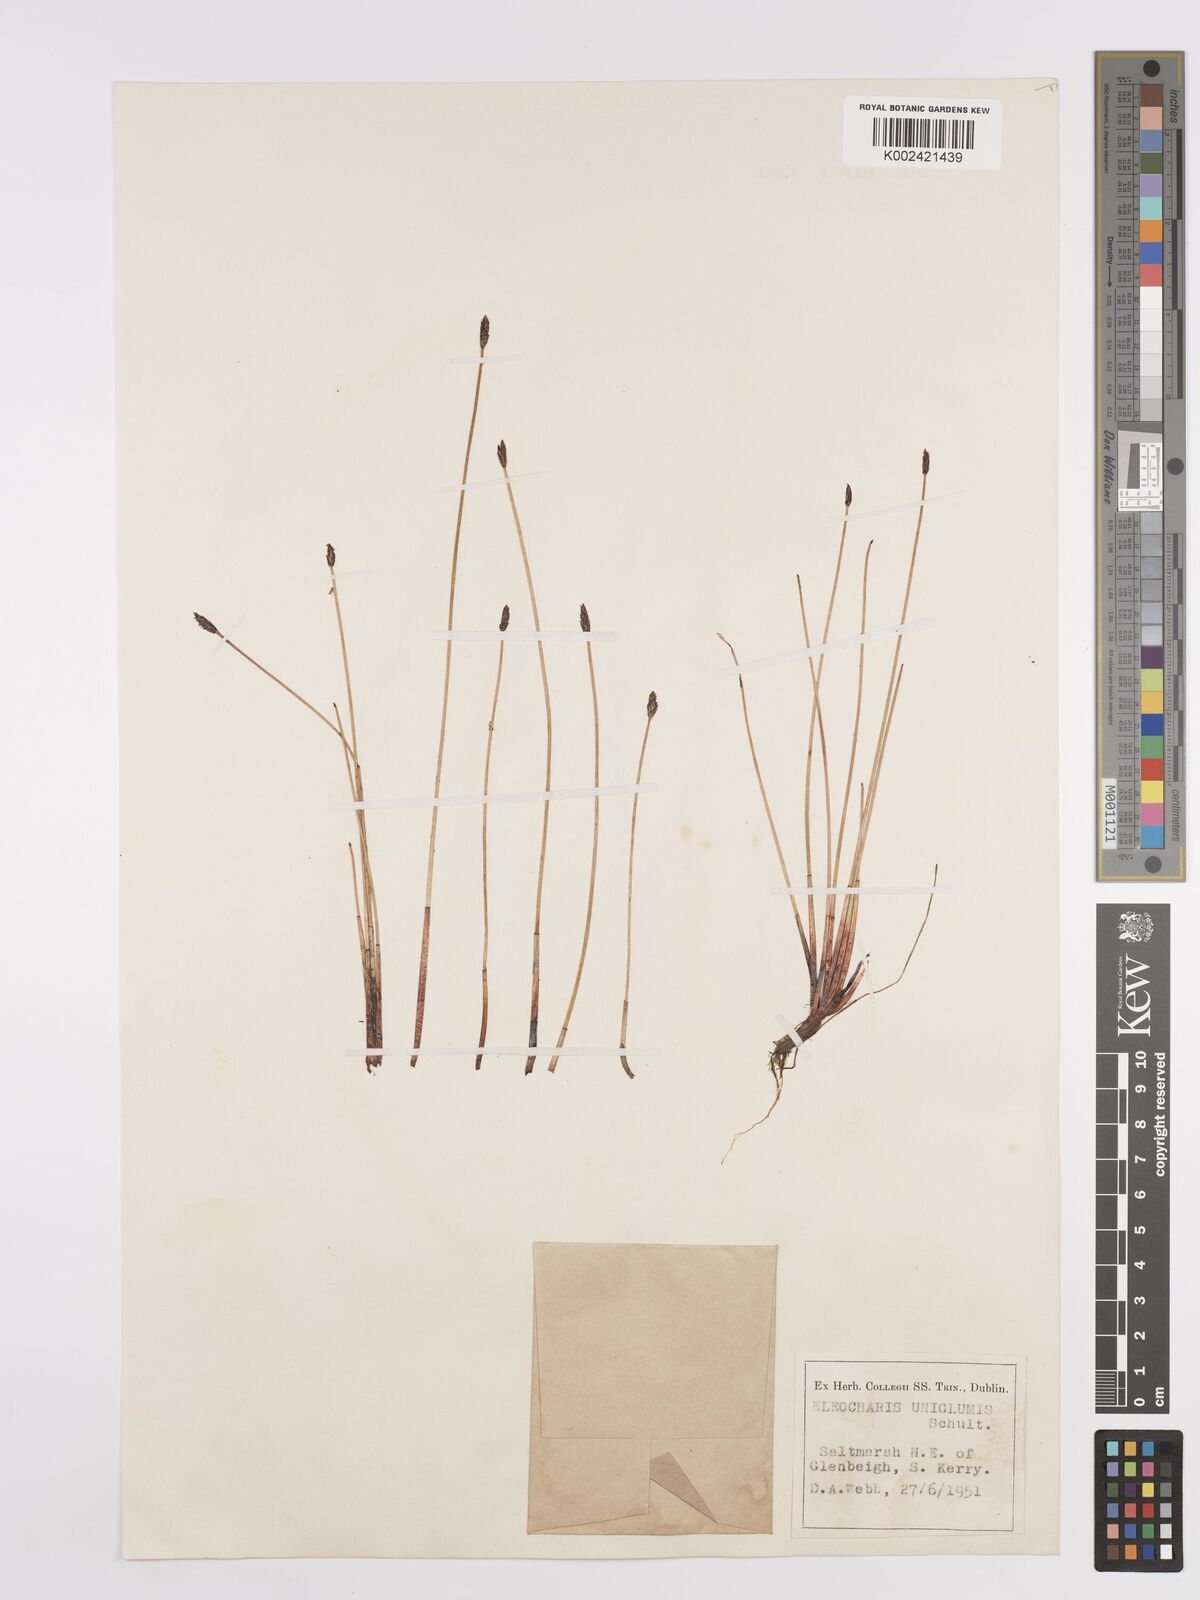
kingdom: Plantae
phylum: Tracheophyta
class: Liliopsida
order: Poales
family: Cyperaceae
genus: Eleocharis
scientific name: Eleocharis uniglumis
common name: Slender spike-rush
